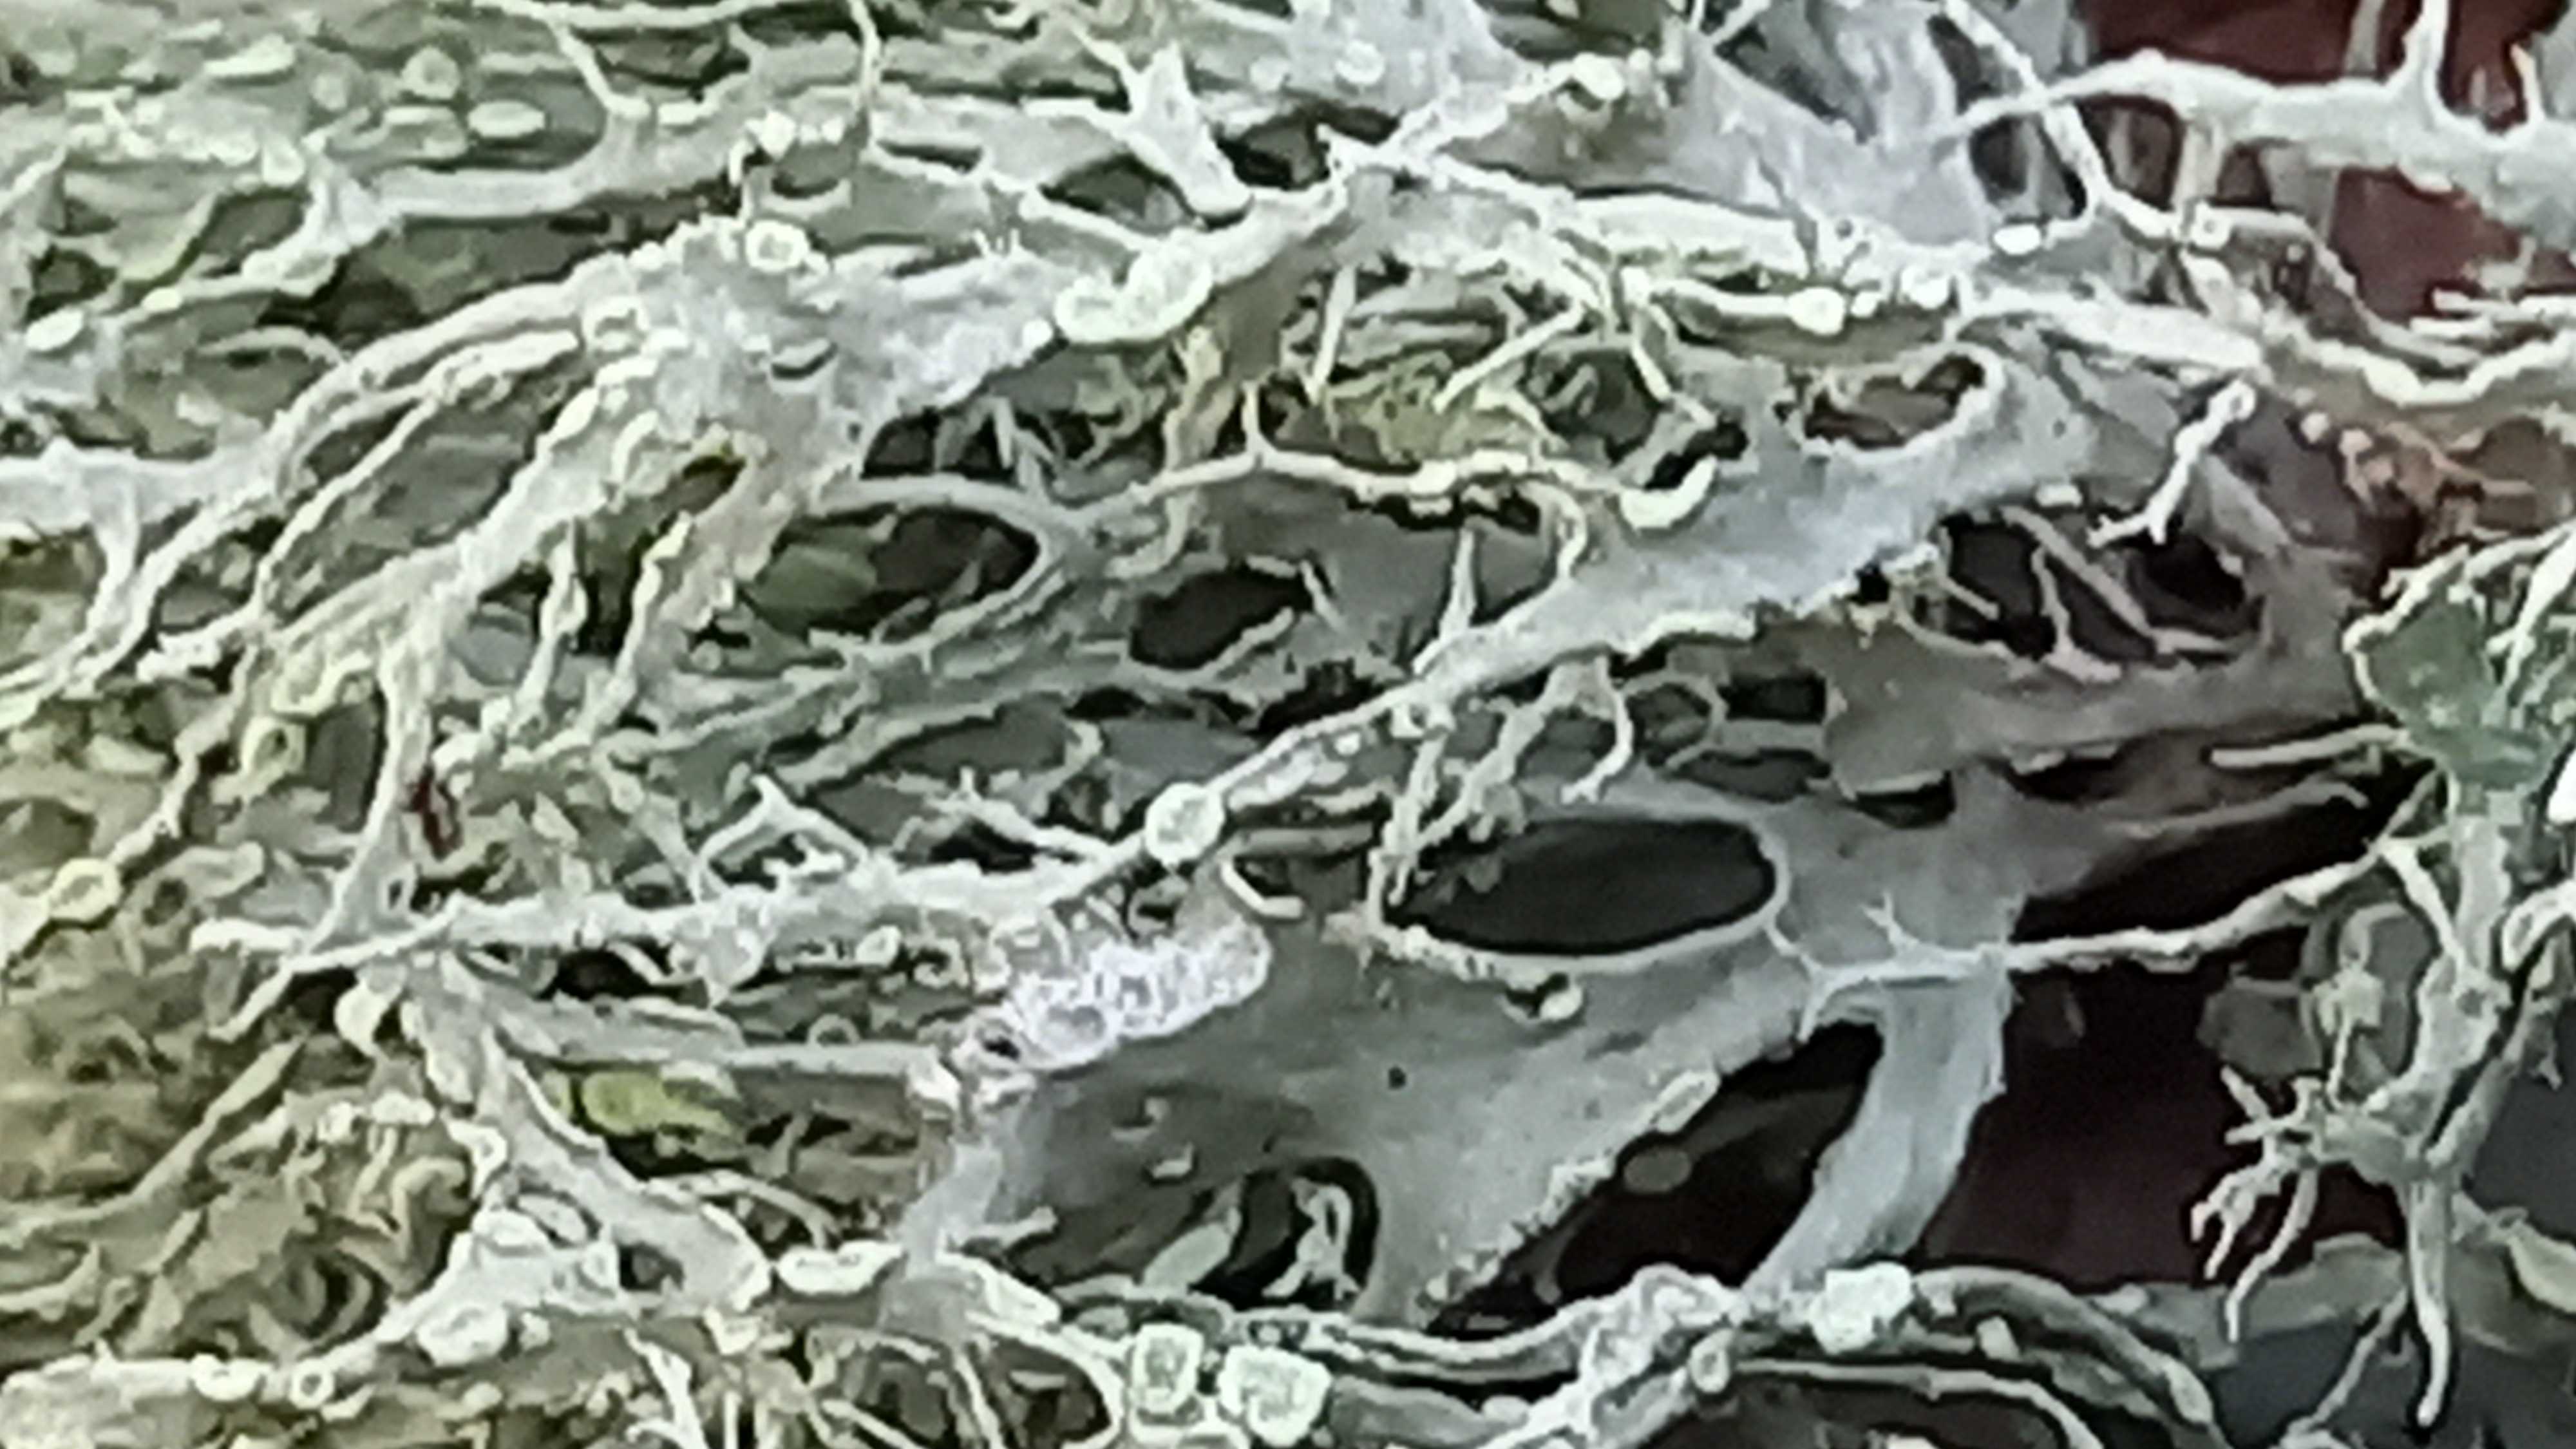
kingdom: Fungi
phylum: Ascomycota
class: Lecanoromycetes
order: Lecanorales
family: Ramalinaceae
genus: Ramalina
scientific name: Ramalina farinacea
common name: melet grenlav
